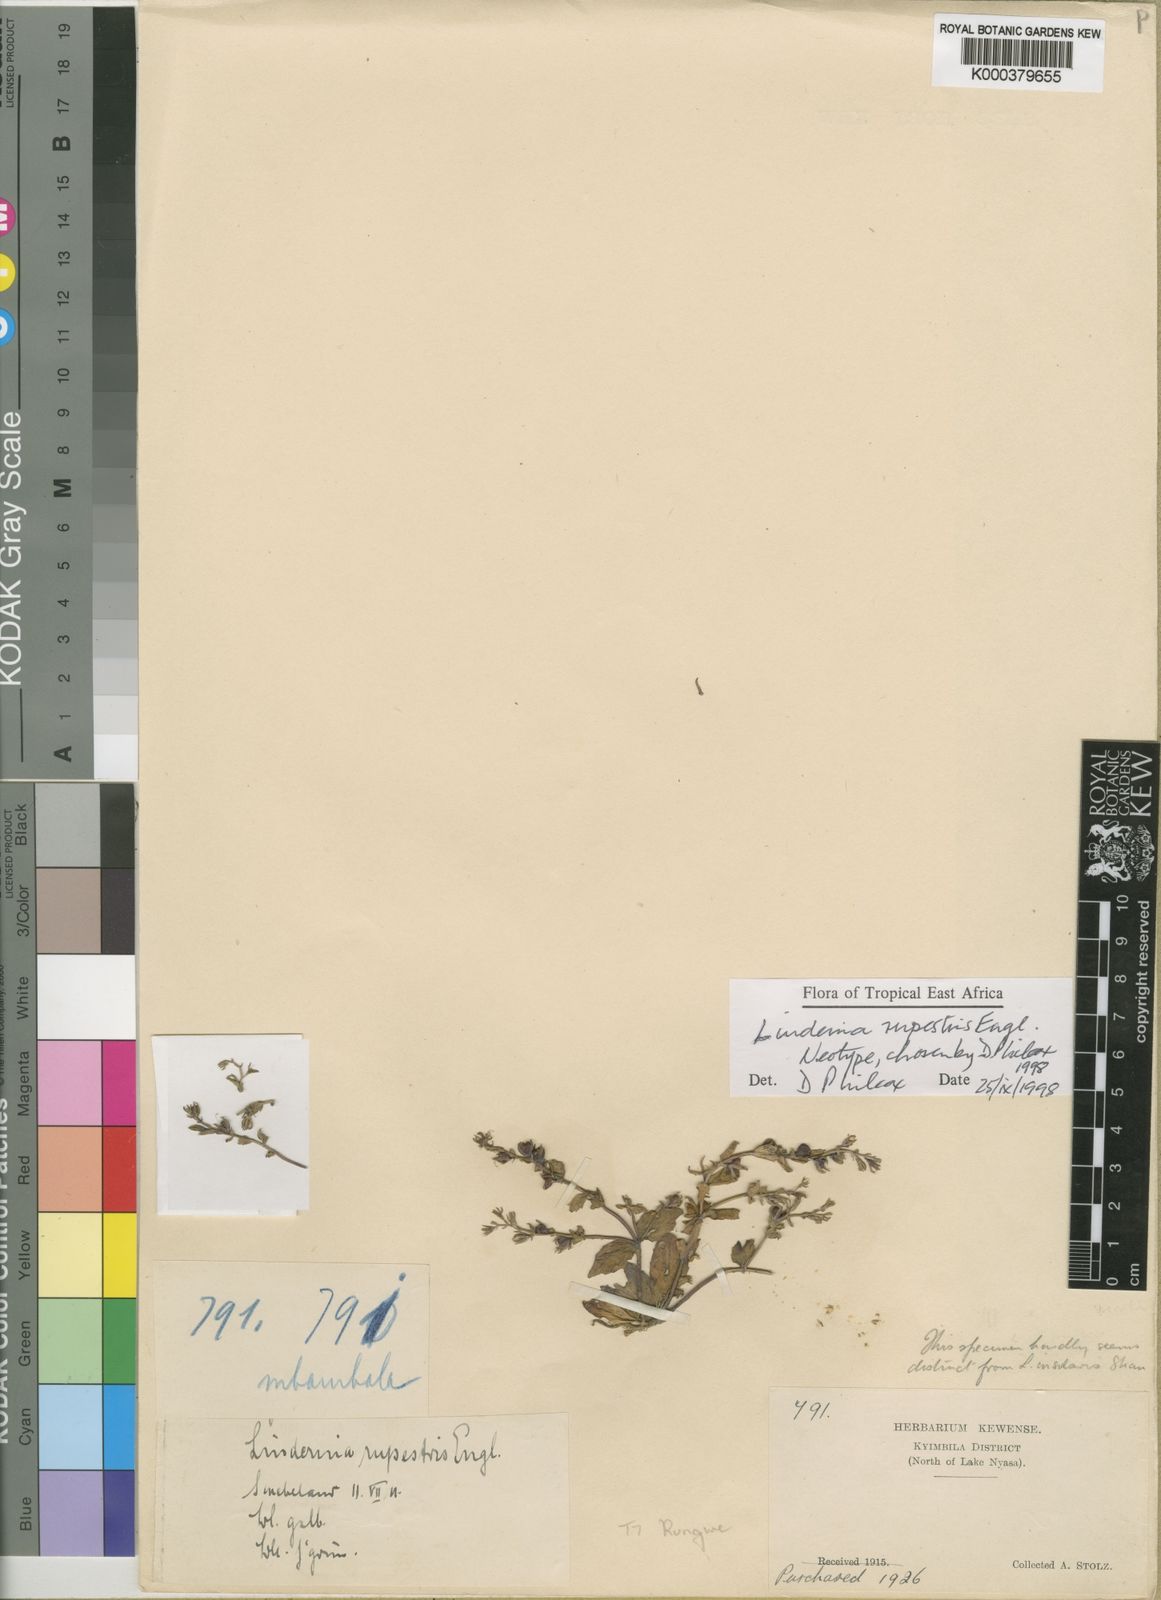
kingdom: Plantae
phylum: Tracheophyta
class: Magnoliopsida
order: Lamiales
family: Linderniaceae
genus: Crepidorhopalon
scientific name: Crepidorhopalon rupestris
